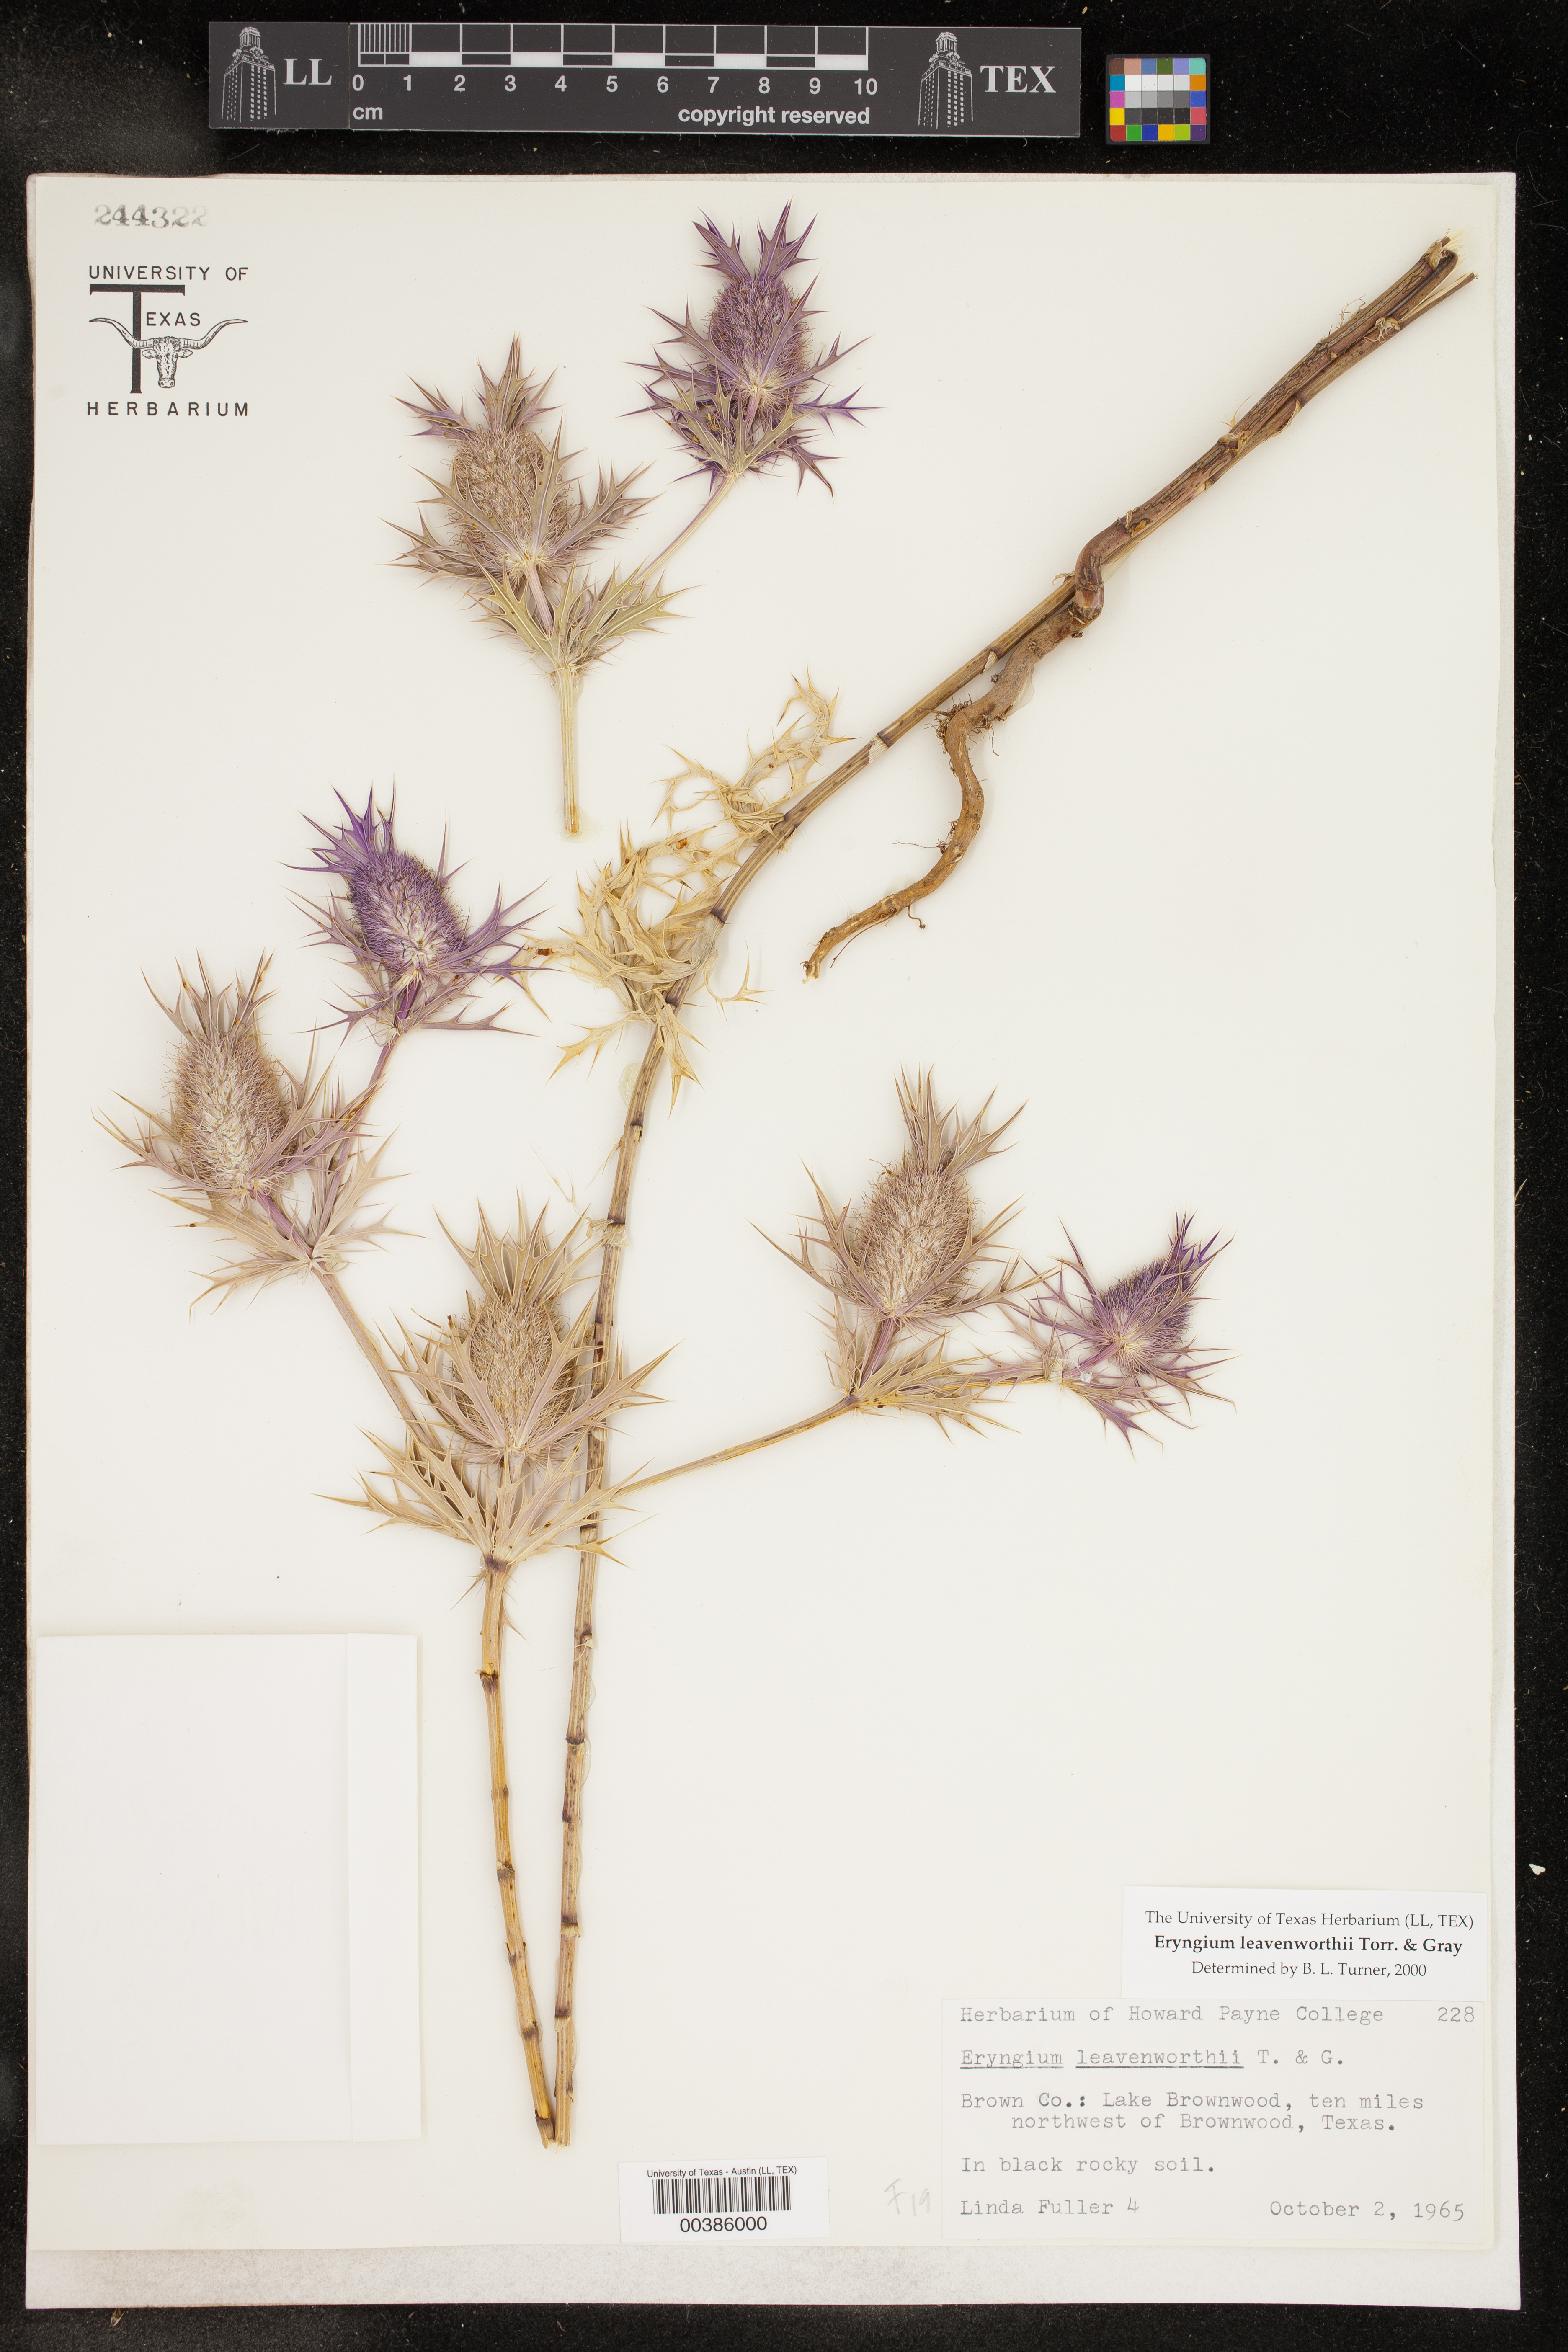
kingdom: Plantae
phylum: Tracheophyta
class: Magnoliopsida
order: Apiales
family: Apiaceae
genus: Eryngium
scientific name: Eryngium leavenworthii
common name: Leavenworth's eryngo
